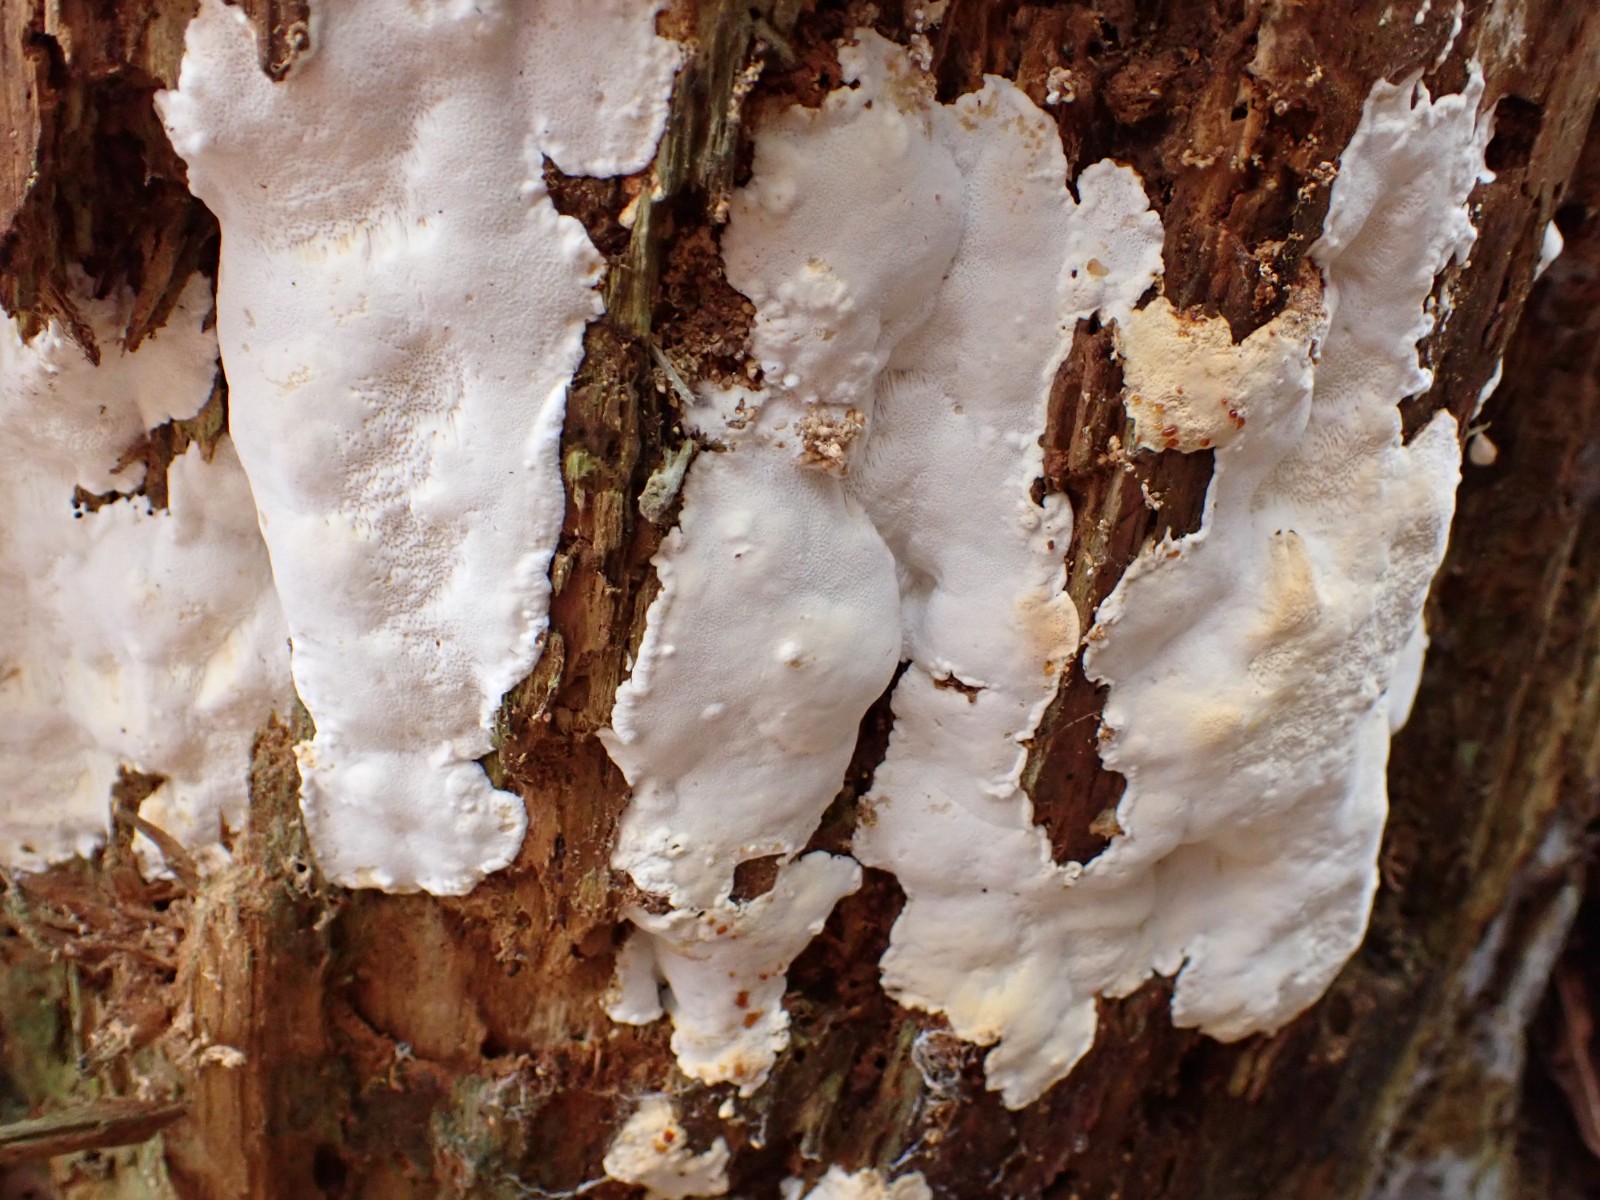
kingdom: Fungi
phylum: Basidiomycota
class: Agaricomycetes
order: Polyporales
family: Fomitopsidaceae
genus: Daedalea
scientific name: Daedalea xantha
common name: gul sejporesvamp
